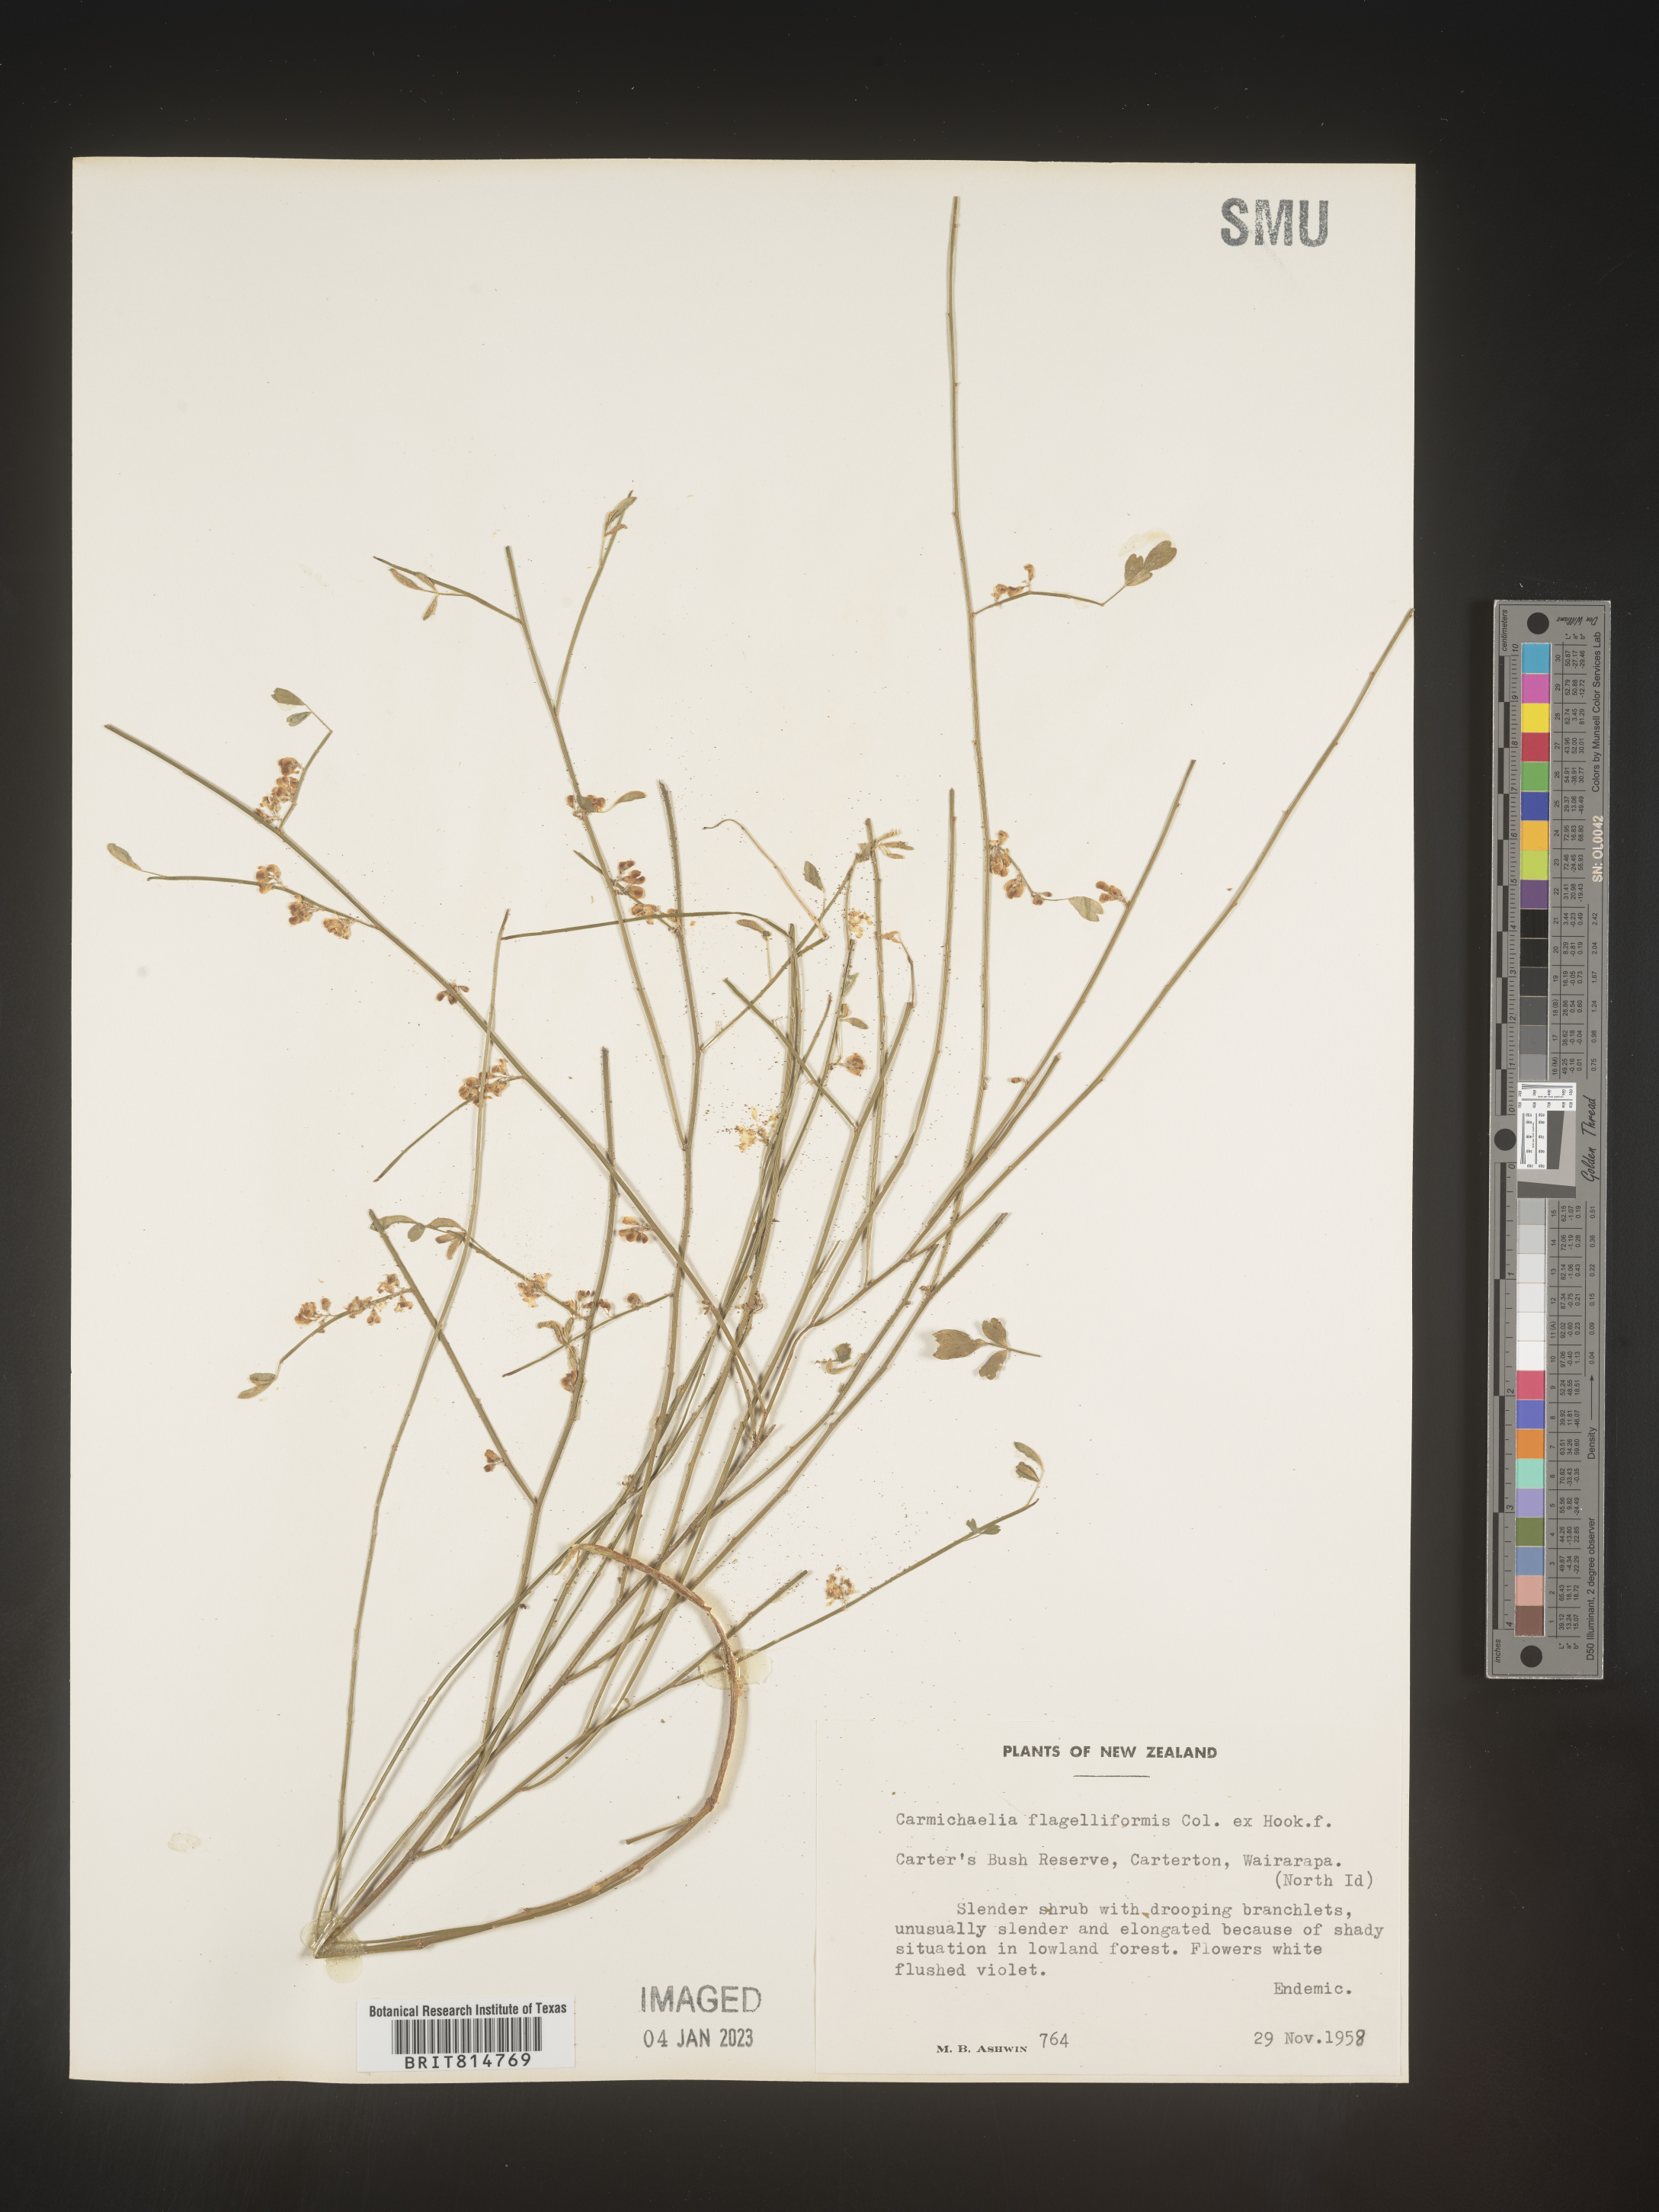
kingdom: Plantae
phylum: Tracheophyta
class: Magnoliopsida
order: Fabales
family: Fabaceae
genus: Carmichaelia
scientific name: Carmichaelia
